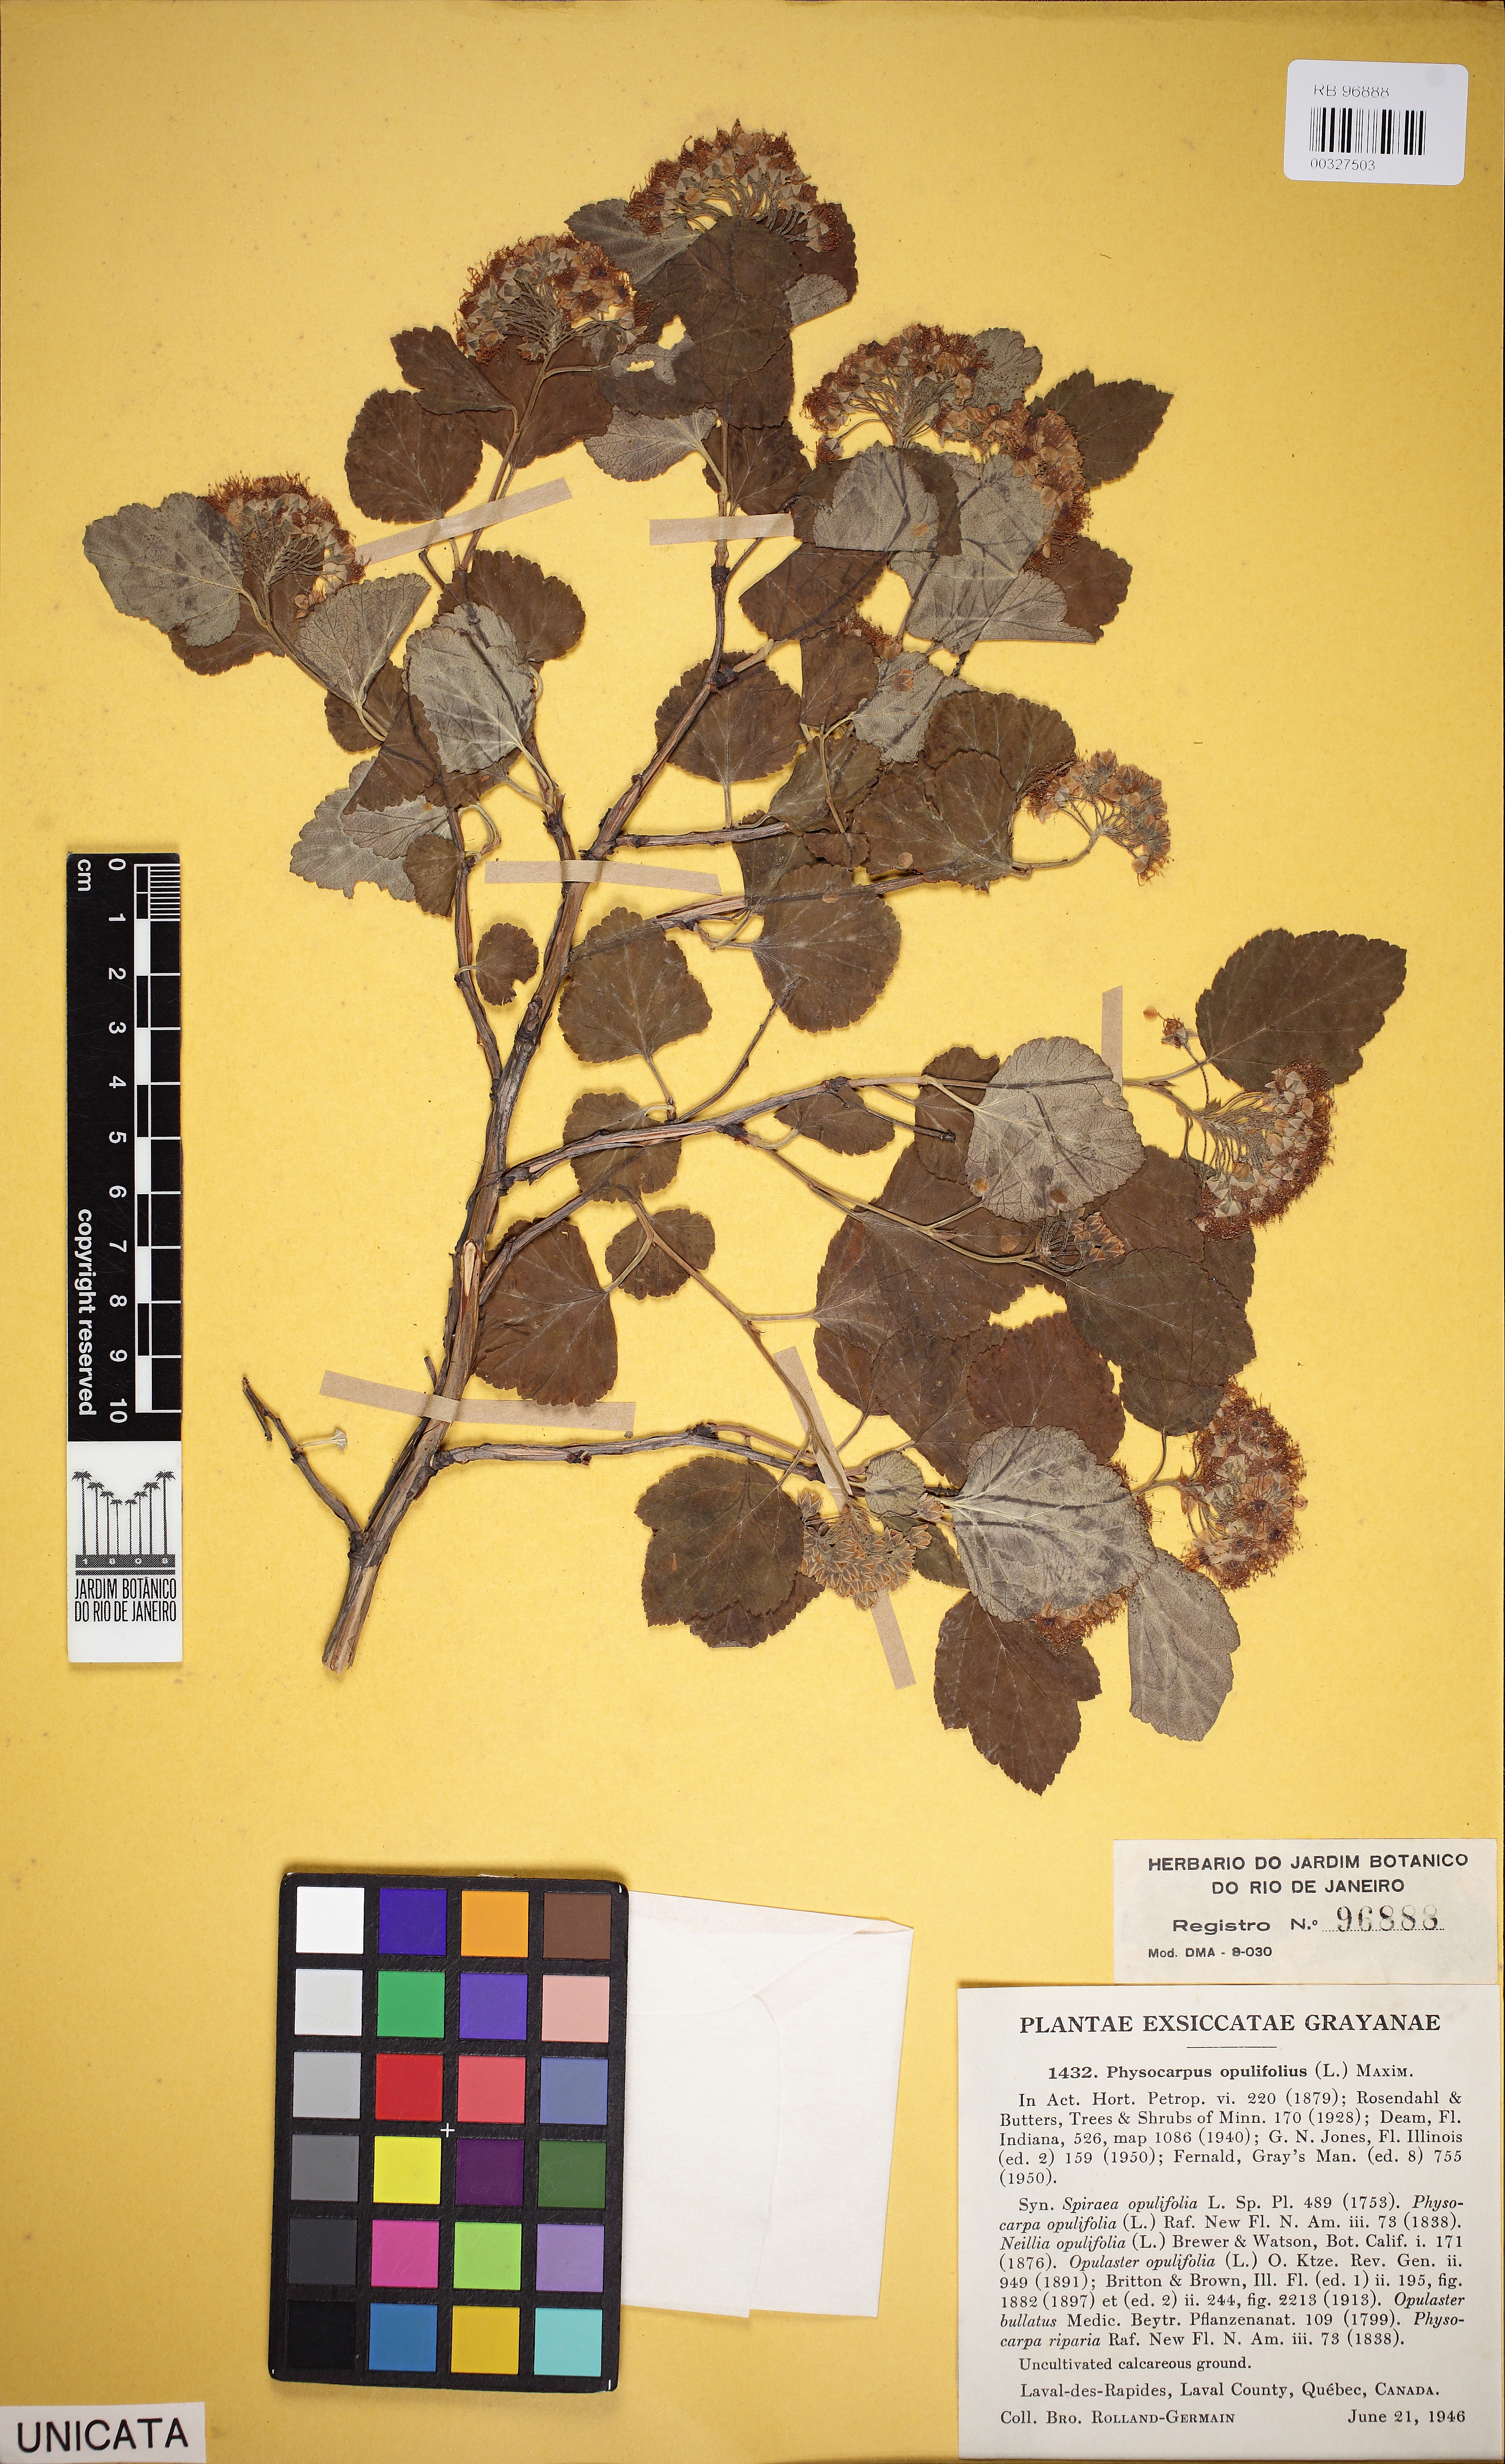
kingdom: Plantae
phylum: Tracheophyta
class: Magnoliopsida
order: Rosales
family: Rosaceae
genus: Physocarpus
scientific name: Physocarpus opulifolius
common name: Ninebark
